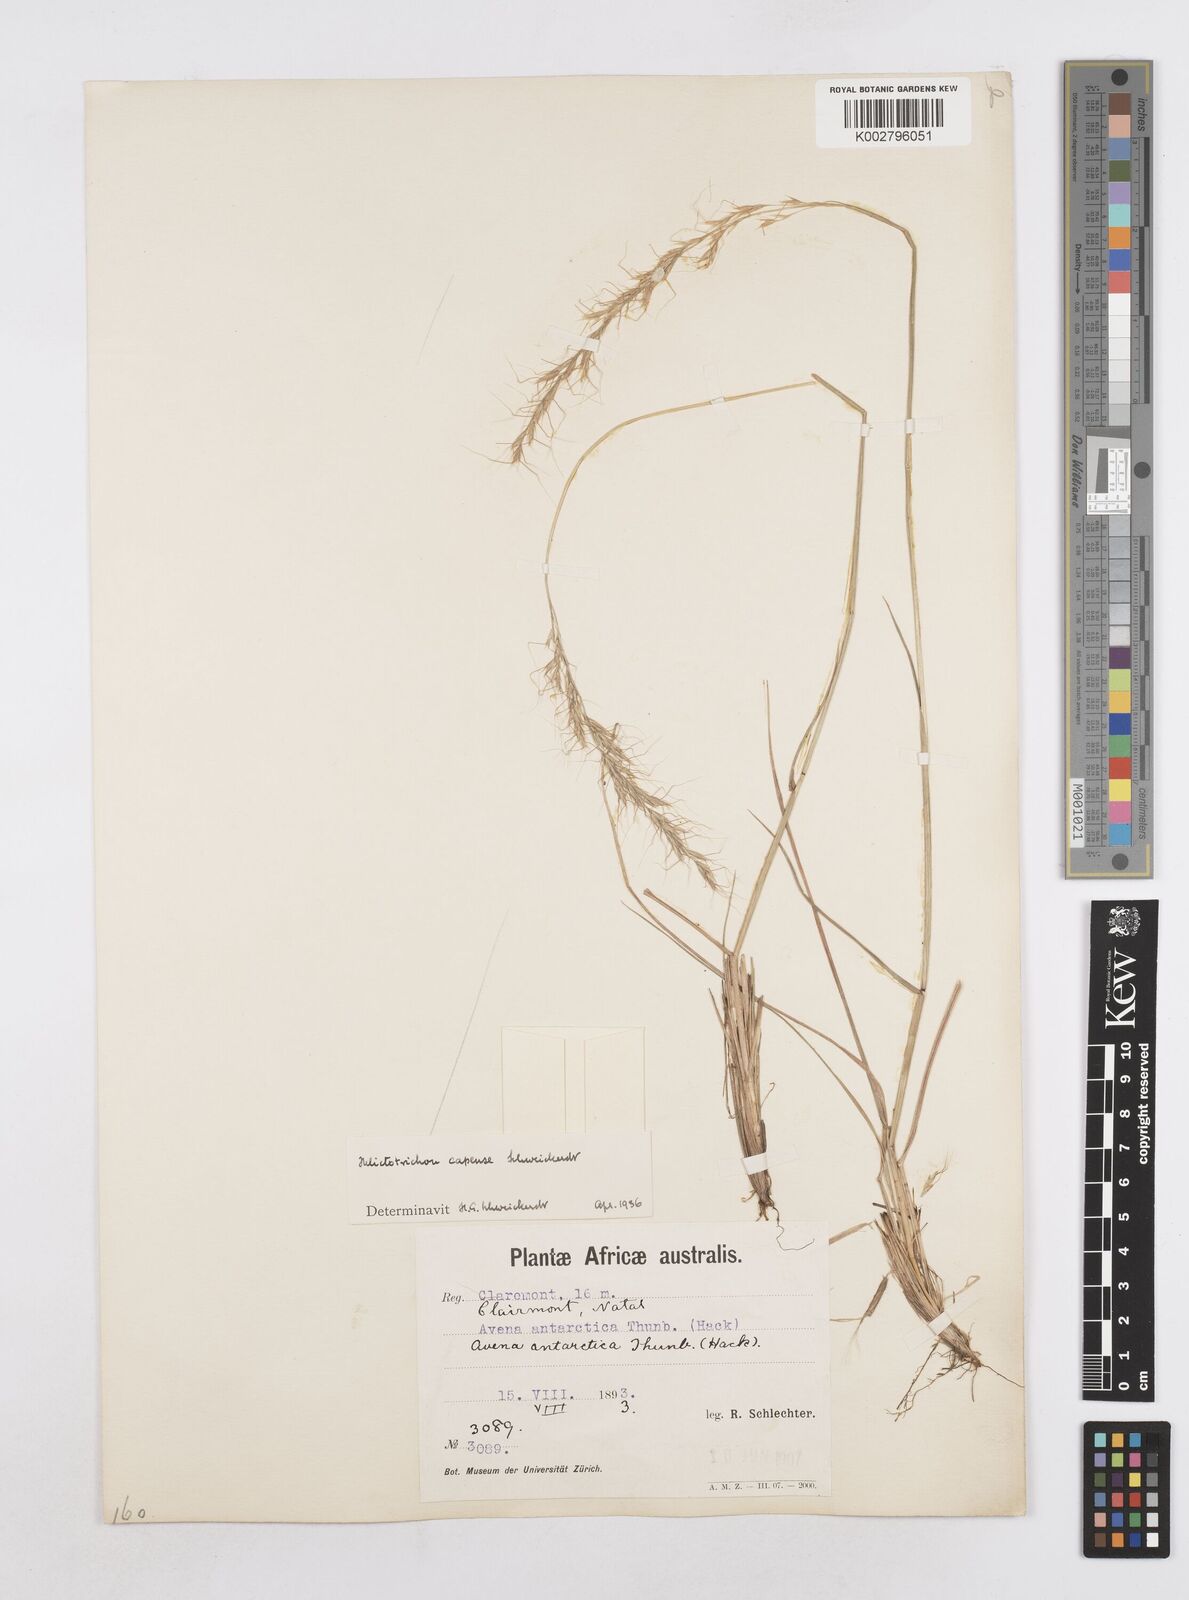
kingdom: Plantae
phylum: Tracheophyta
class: Liliopsida
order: Poales
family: Poaceae
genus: Trisetopsis
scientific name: Trisetopsis capensis
